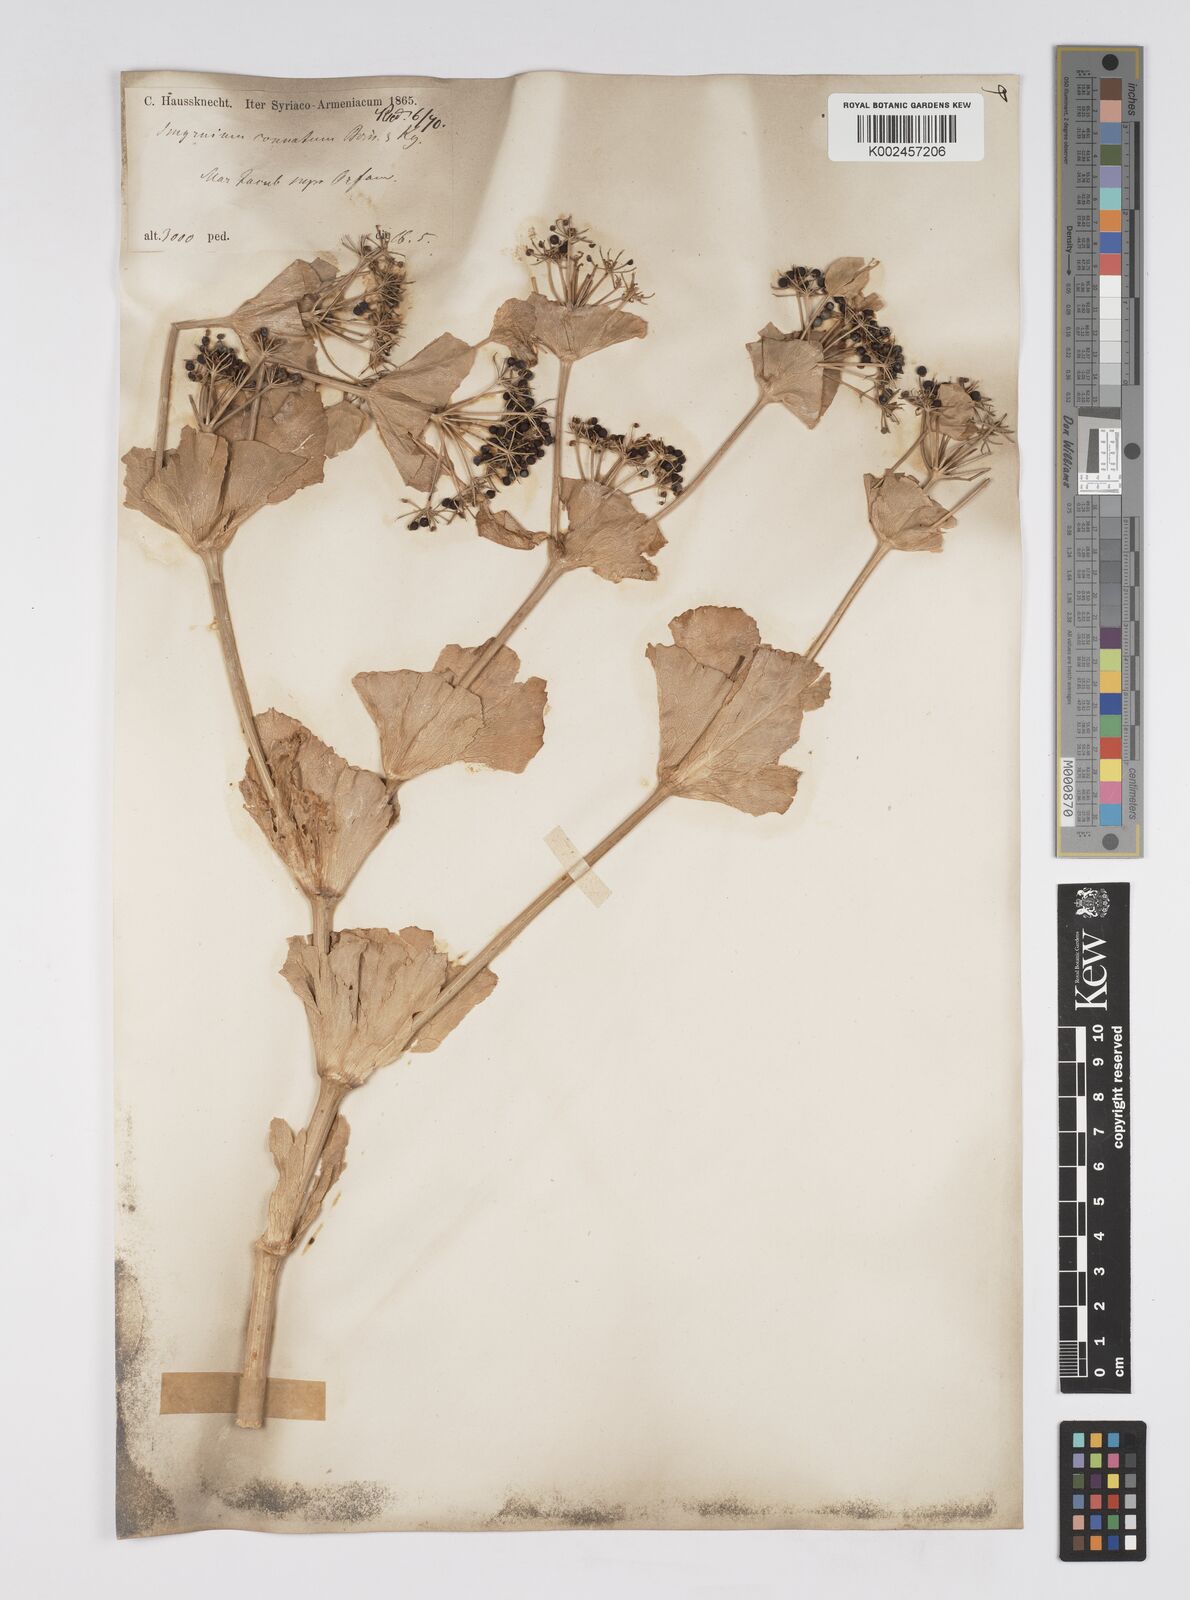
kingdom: Plantae
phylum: Tracheophyta
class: Magnoliopsida
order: Apiales
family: Apiaceae
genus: Smyrnium
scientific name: Smyrnium connatum
